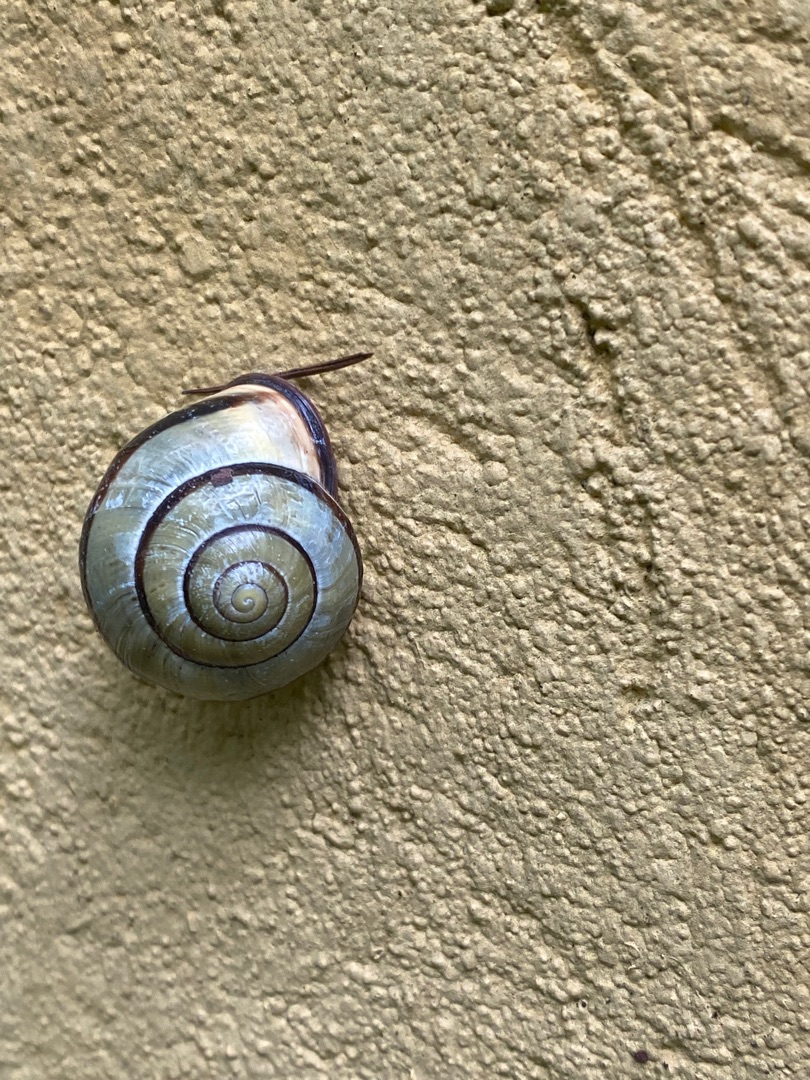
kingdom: Animalia
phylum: Mollusca
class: Gastropoda
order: Stylommatophora
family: Helicidae
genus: Cepaea
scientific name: Cepaea nemoralis
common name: Lundsnegl
